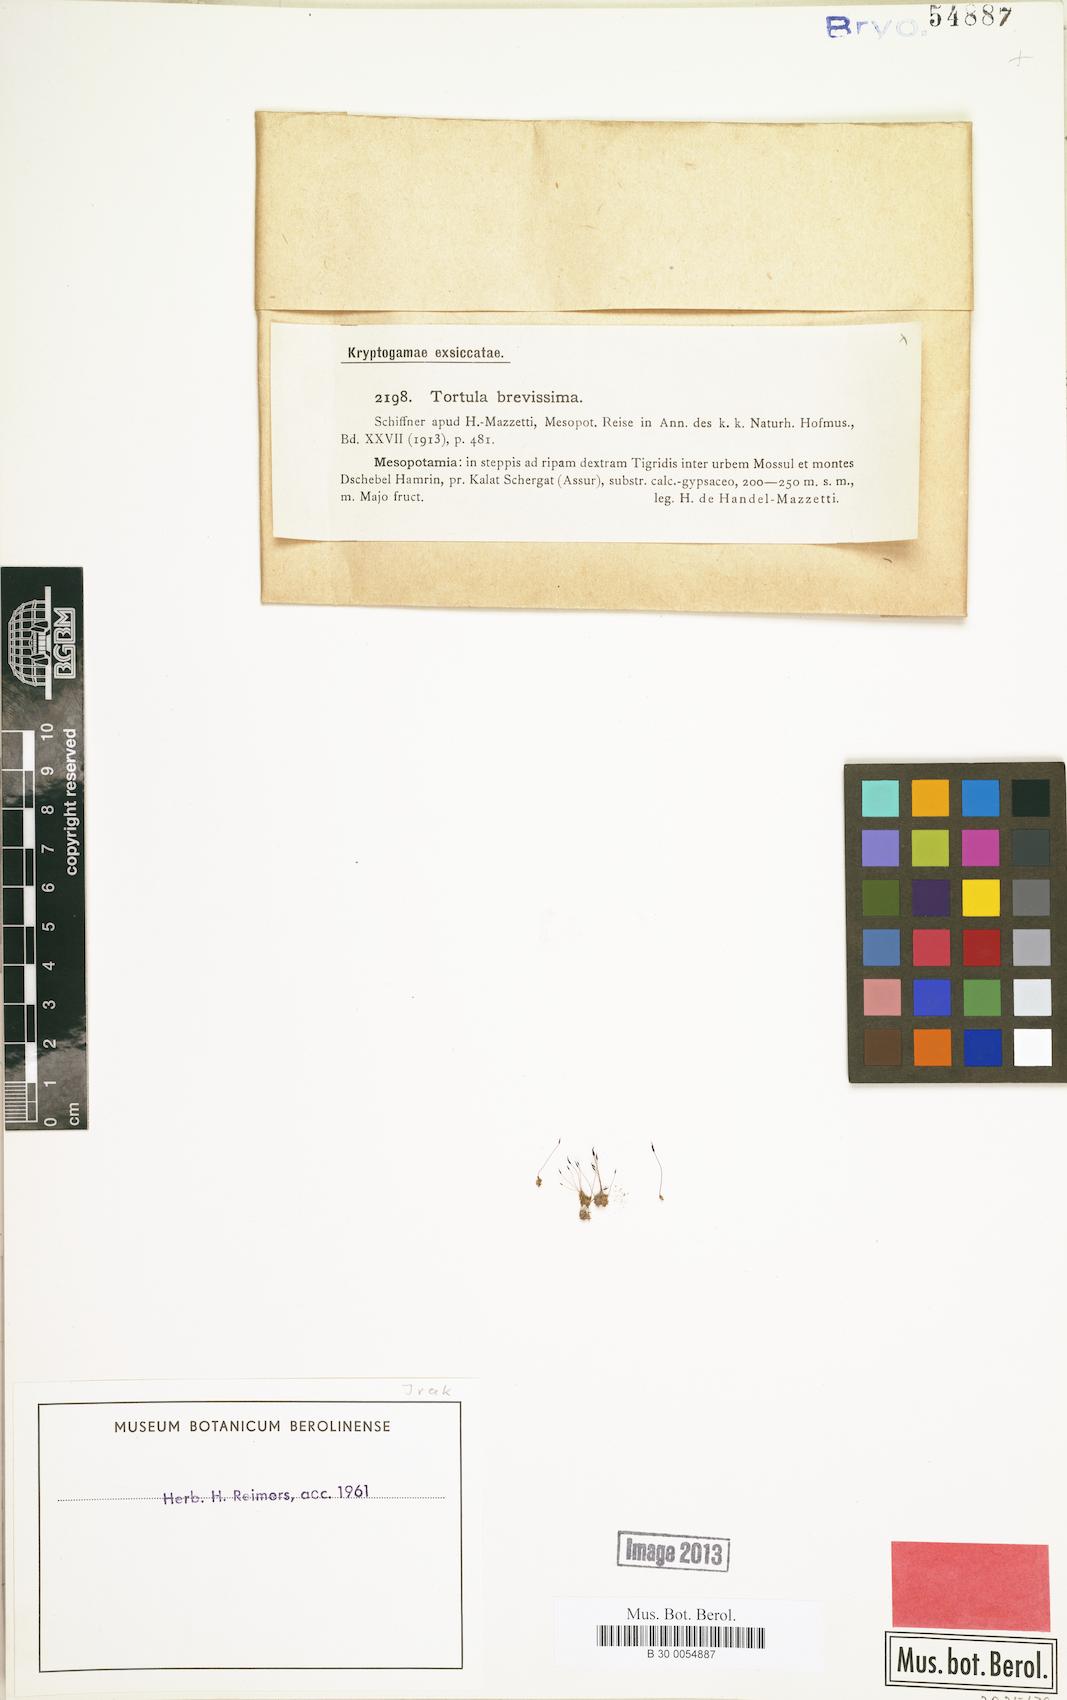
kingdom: Plantae
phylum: Bryophyta
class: Bryopsida
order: Pottiales
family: Pottiaceae
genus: Tortula
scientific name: Tortula brevissima
